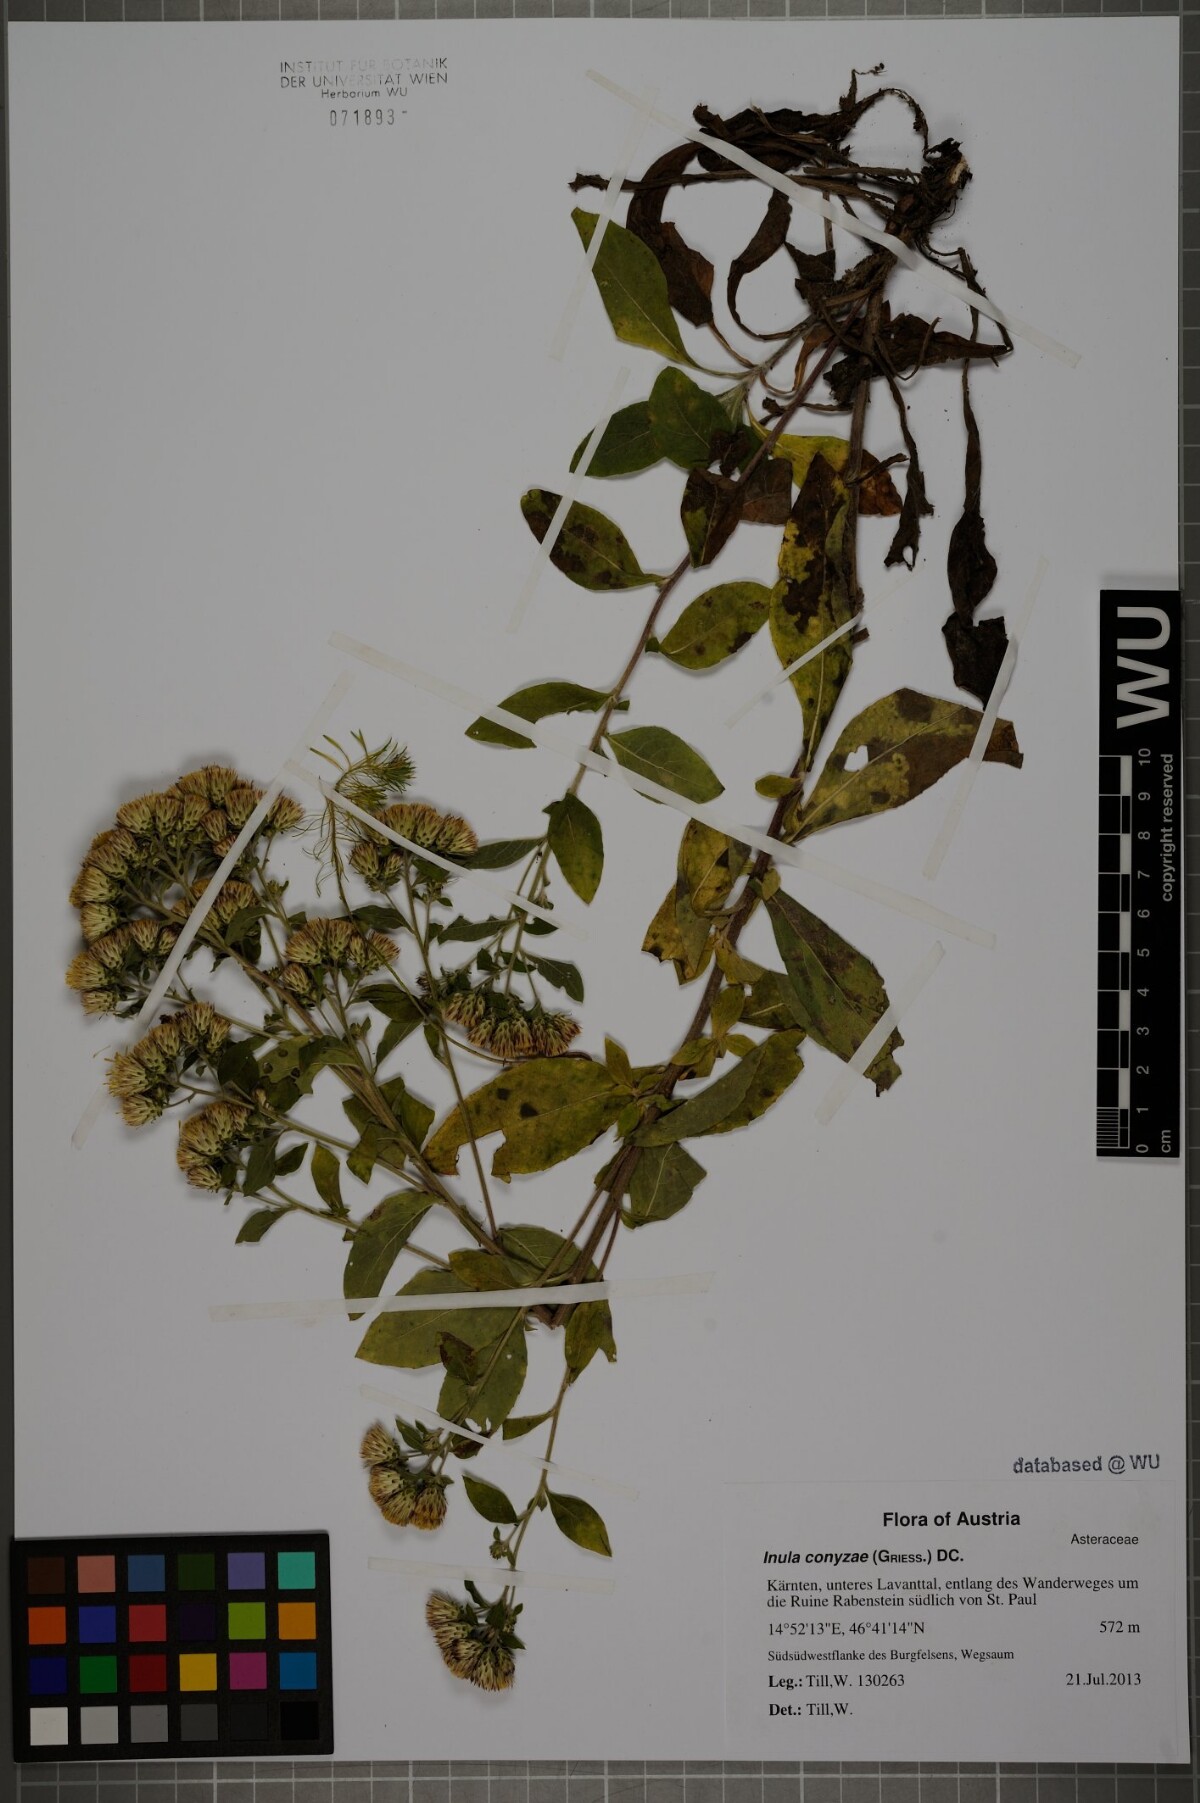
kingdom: Plantae
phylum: Tracheophyta
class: Magnoliopsida
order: Asterales
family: Asteraceae
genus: Pentanema
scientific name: Pentanema squarrosum
